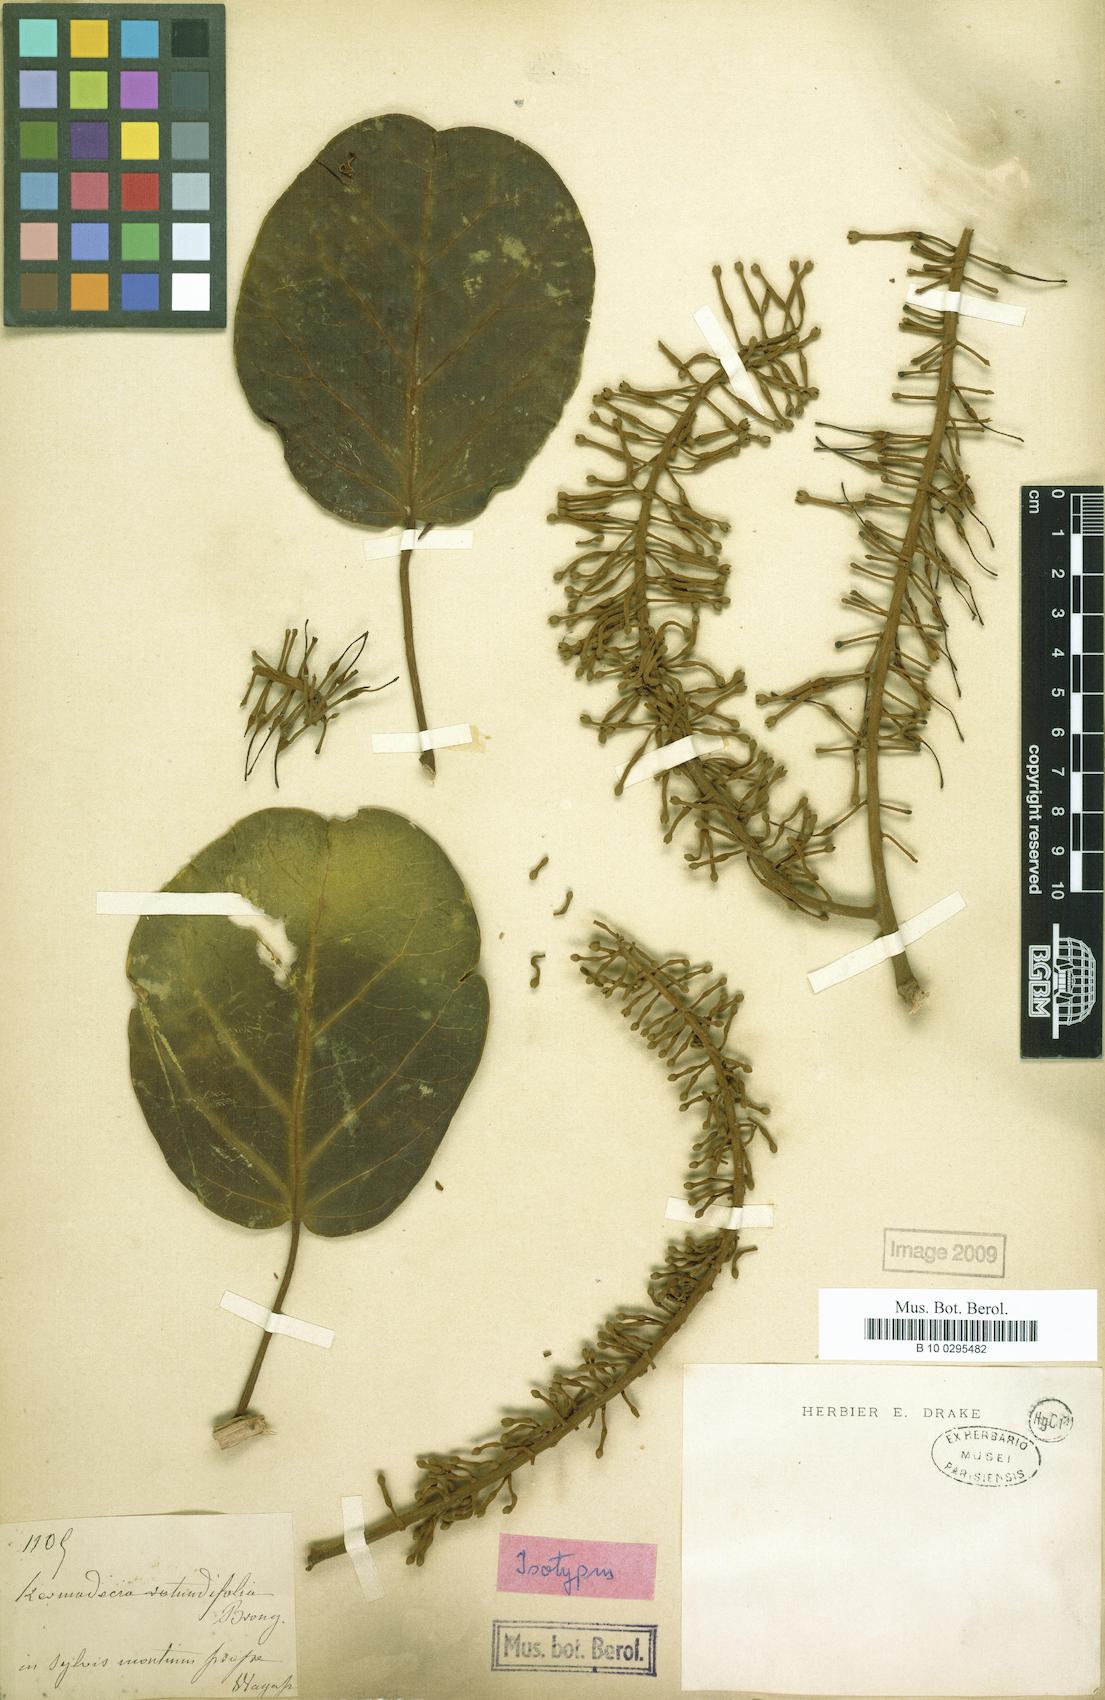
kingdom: Plantae
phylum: Tracheophyta
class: Magnoliopsida
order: Proteales
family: Proteaceae
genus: Kermadecia
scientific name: Kermadecia rotundifolia
